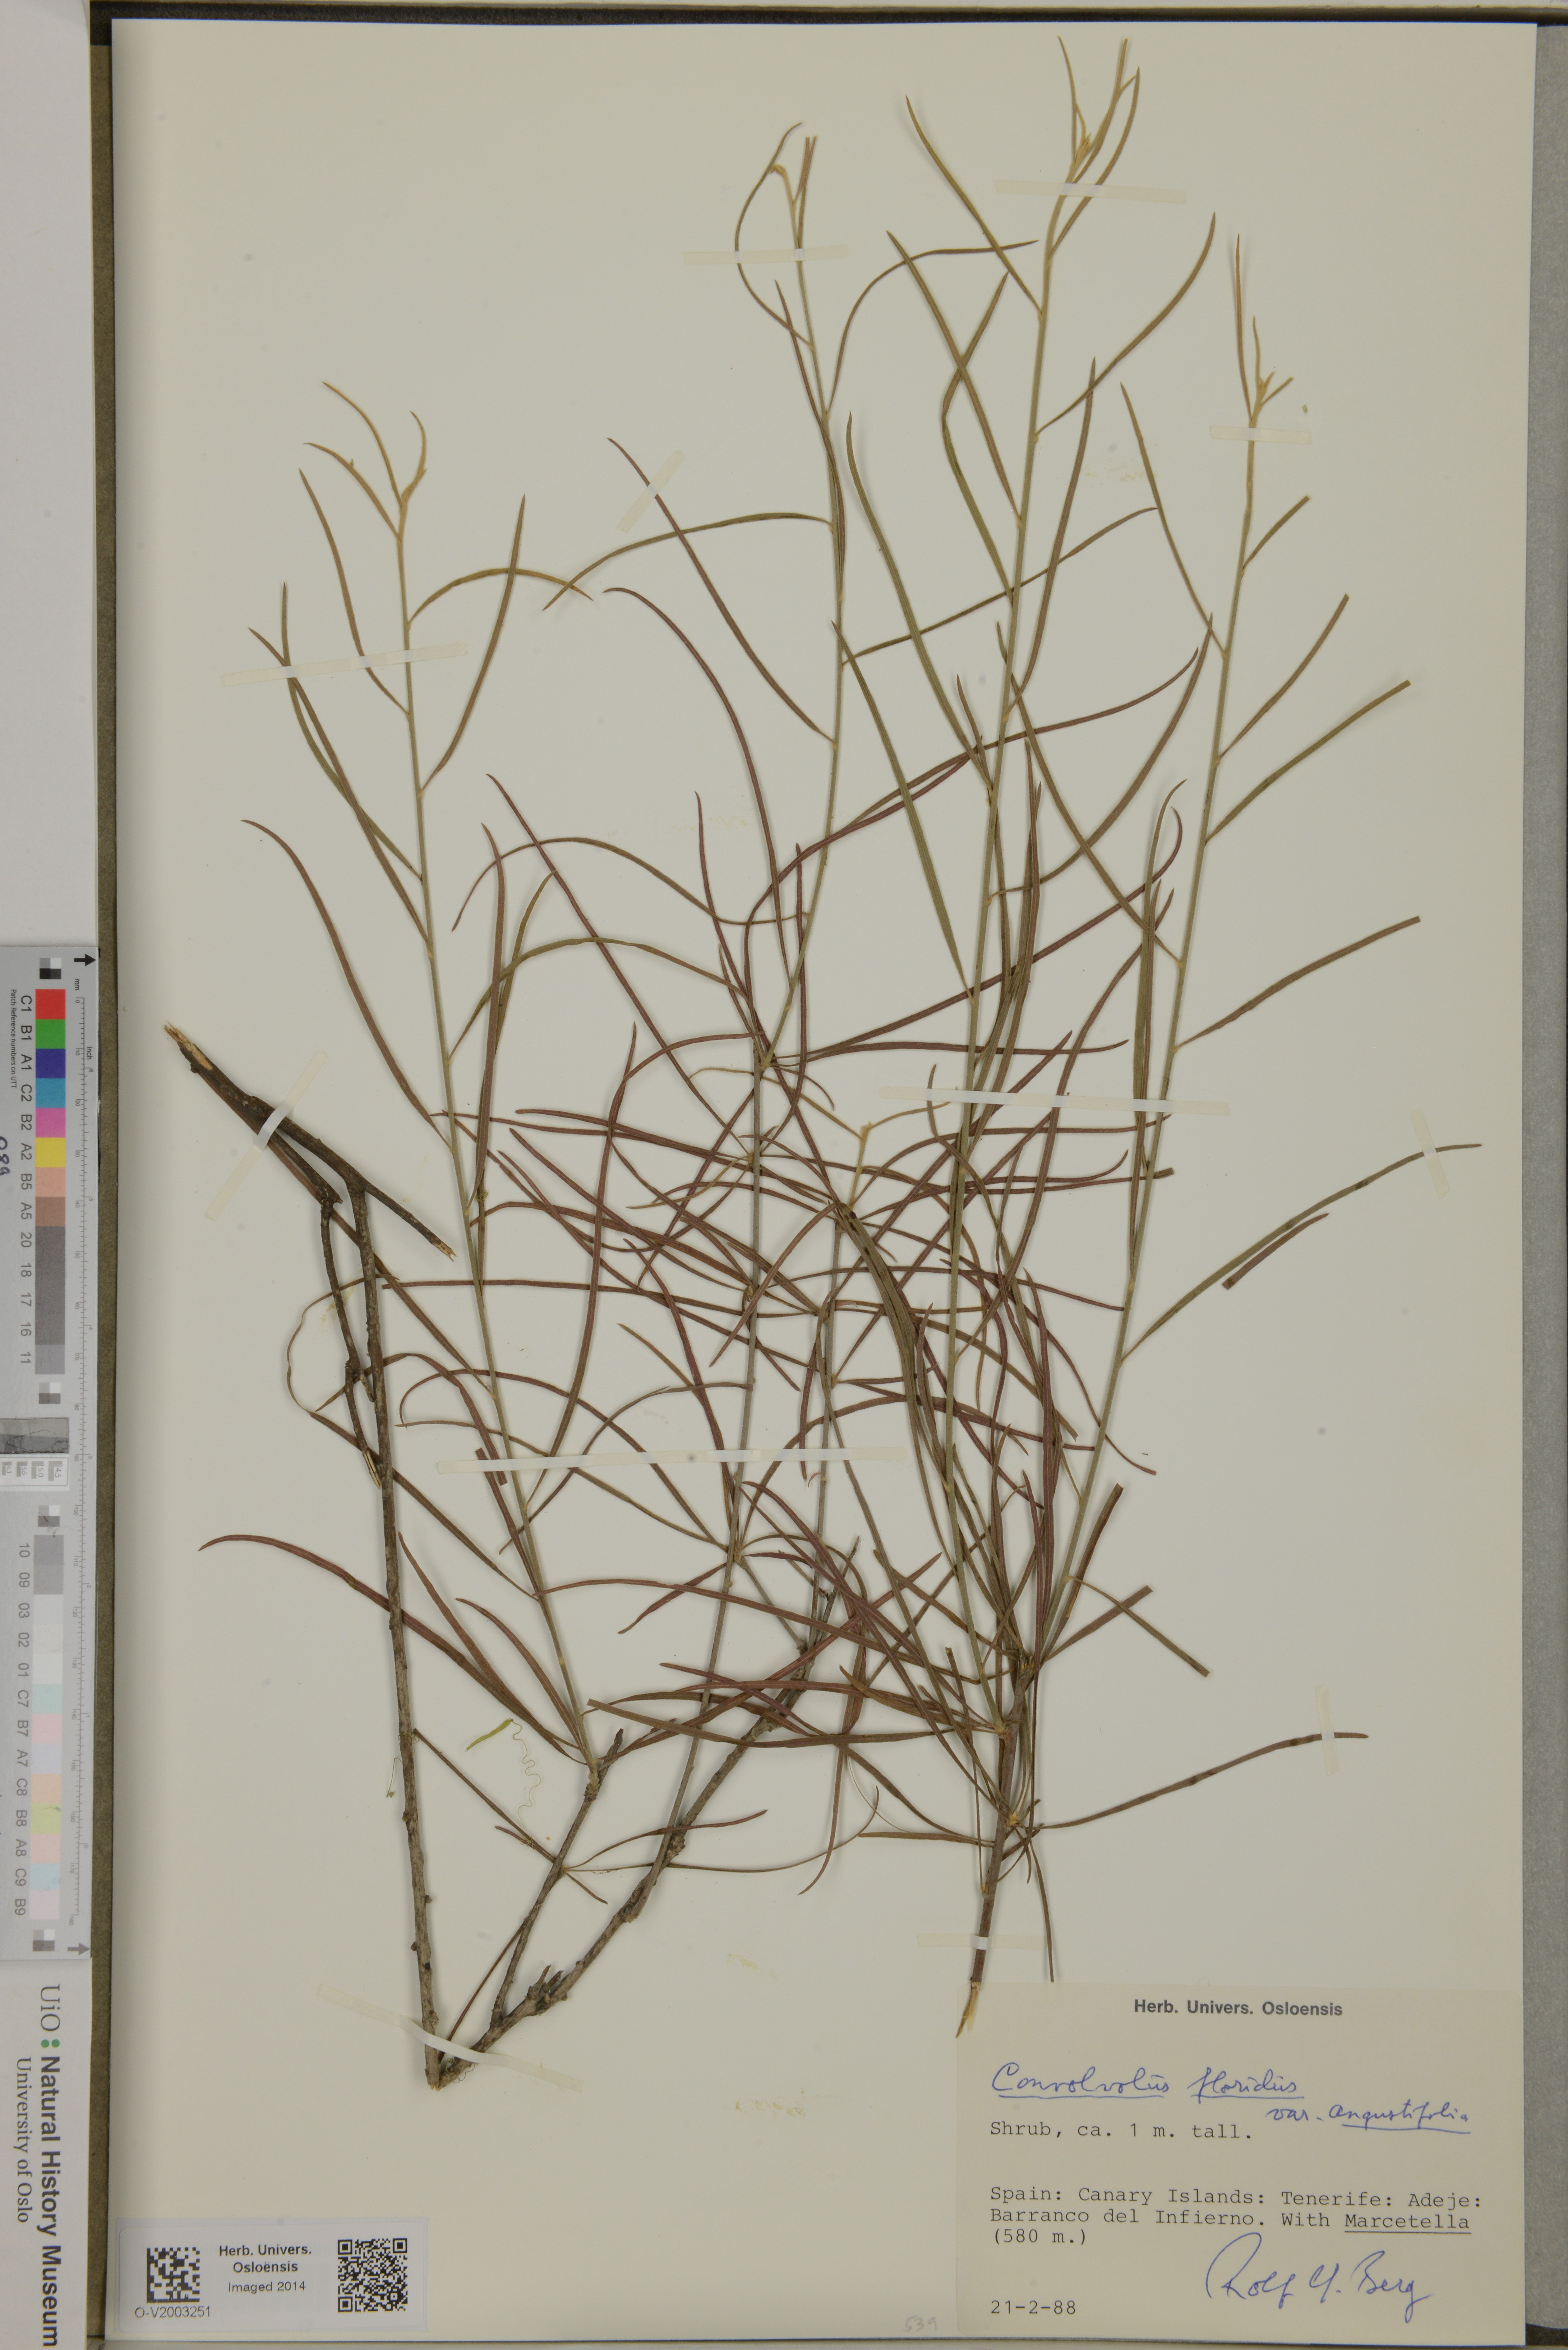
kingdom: Plantae
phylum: Tracheophyta
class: Magnoliopsida
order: Solanales
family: Convolvulaceae
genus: Convolvulus
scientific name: Convolvulus floridus
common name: Guadil
